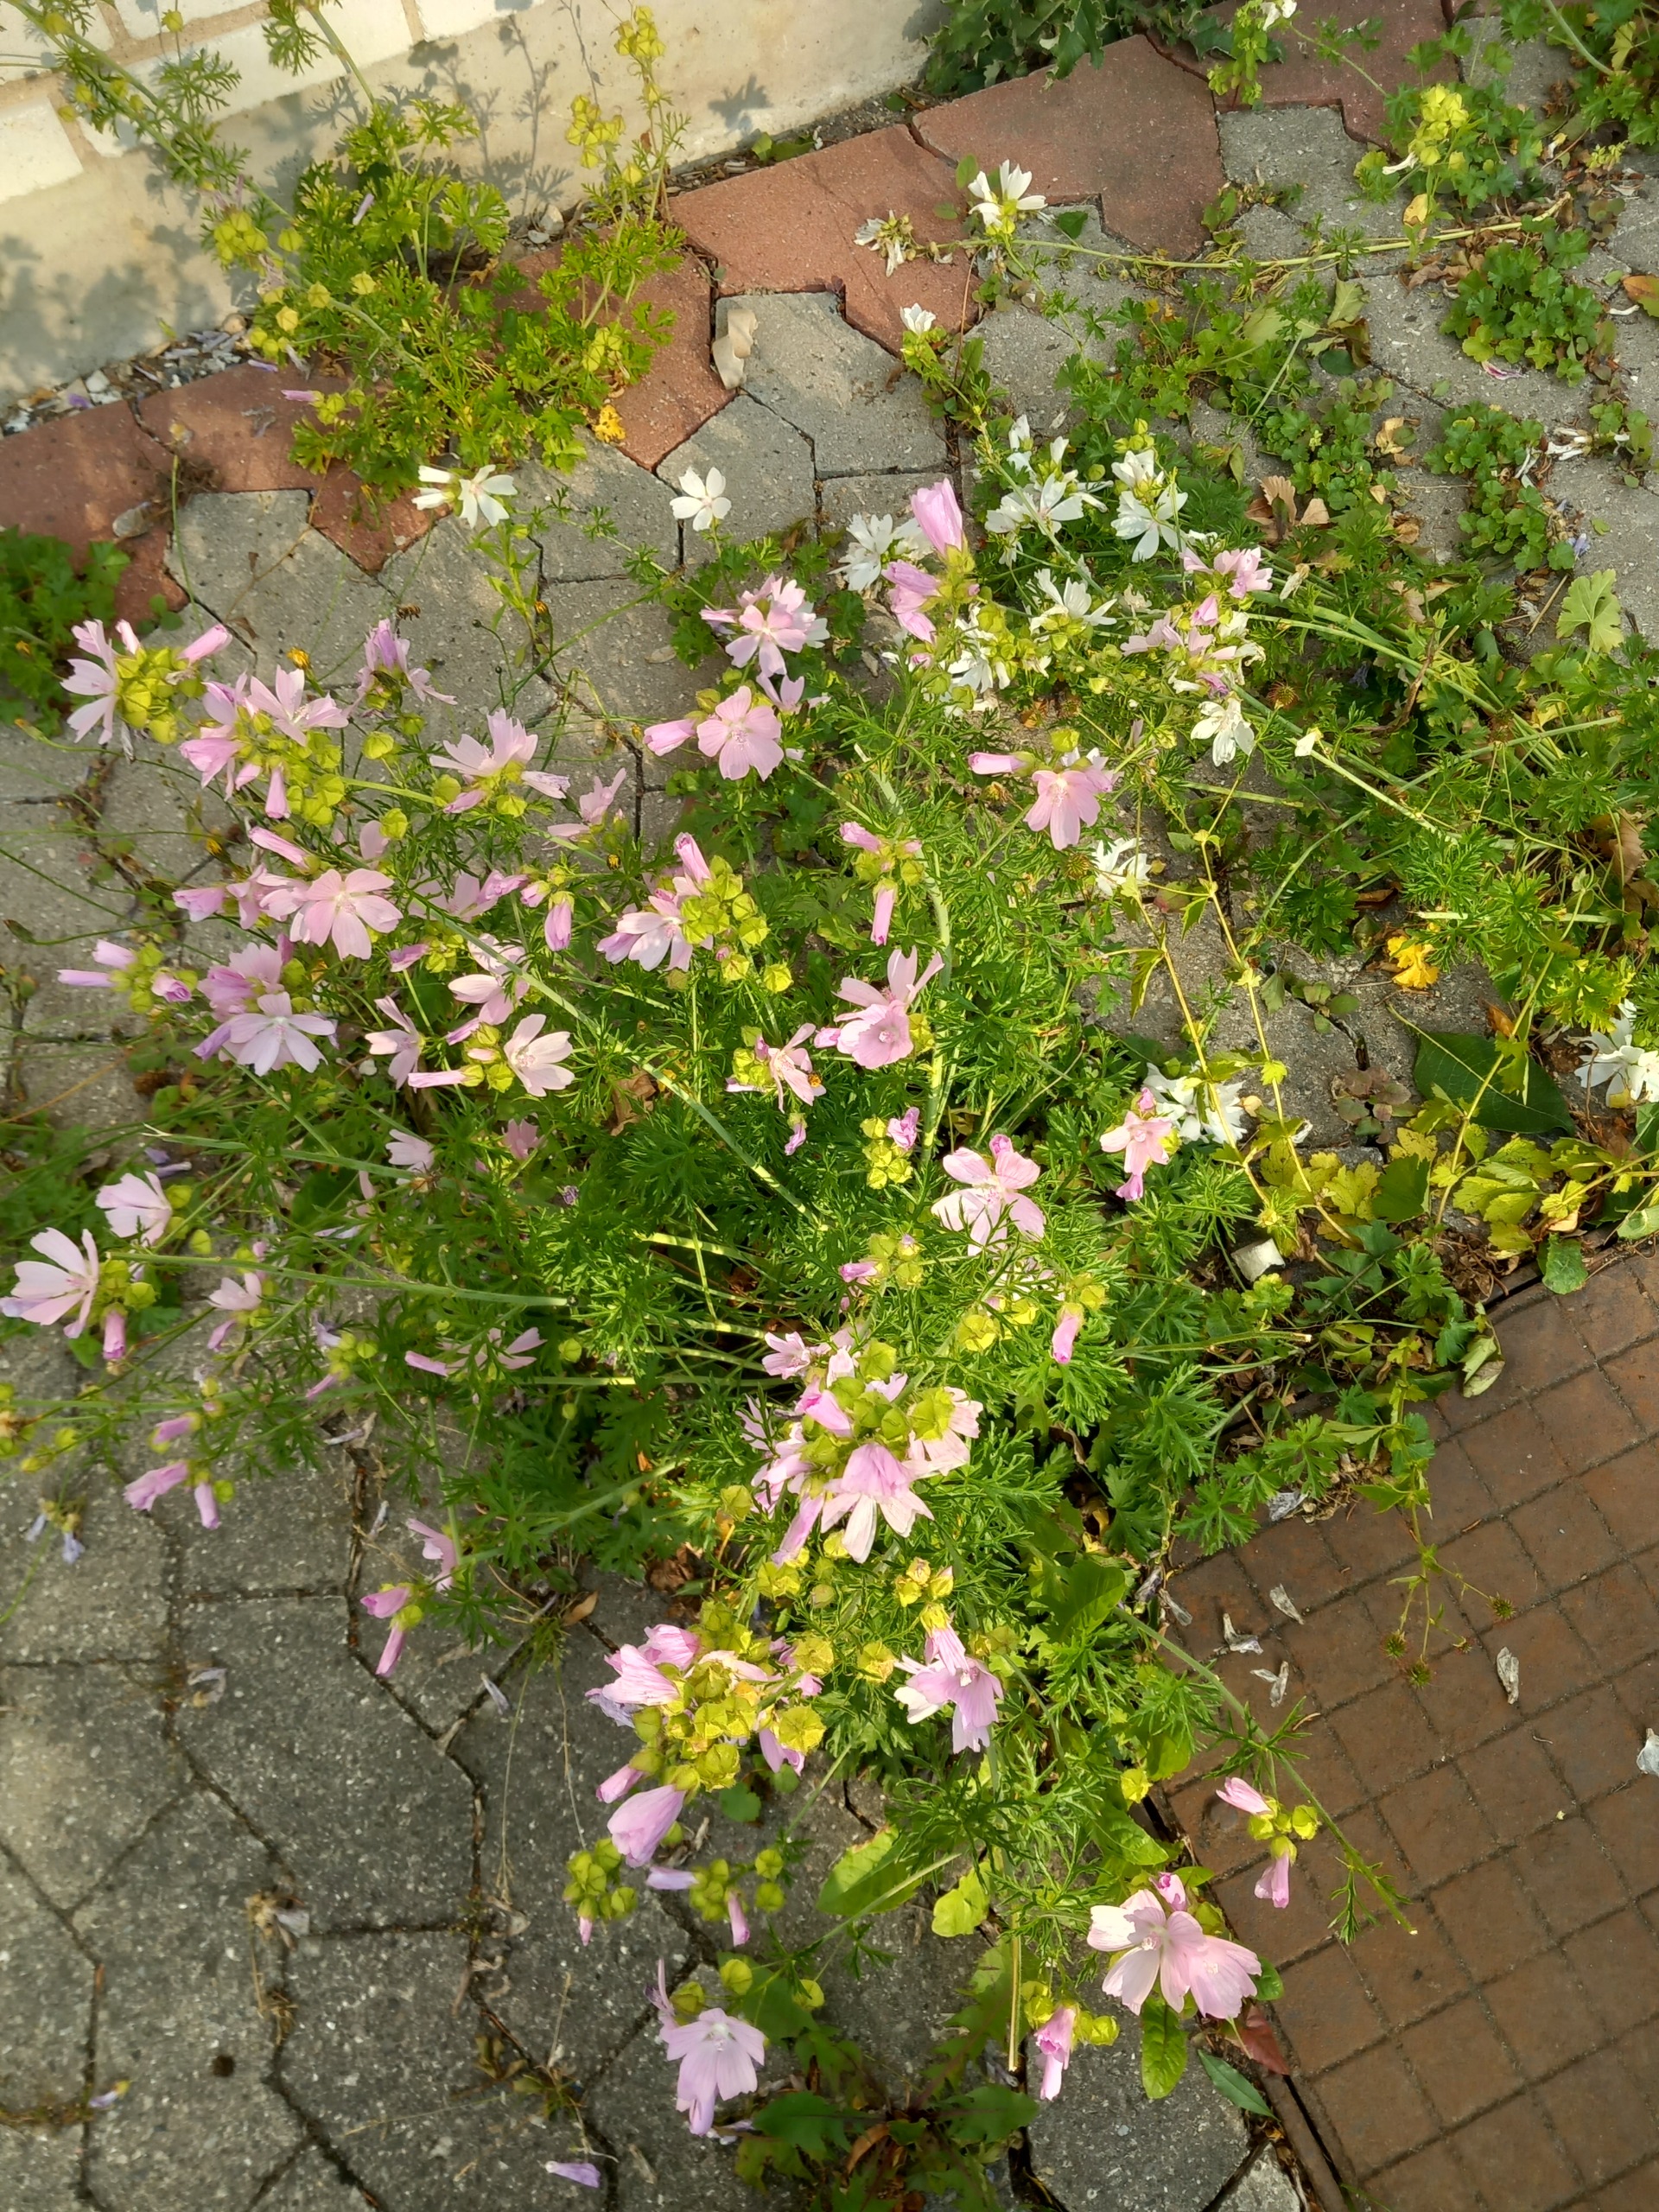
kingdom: Plantae
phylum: Tracheophyta
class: Magnoliopsida
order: Malvales
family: Malvaceae
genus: Malva
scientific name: Malva moschata
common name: Moskus-katost
